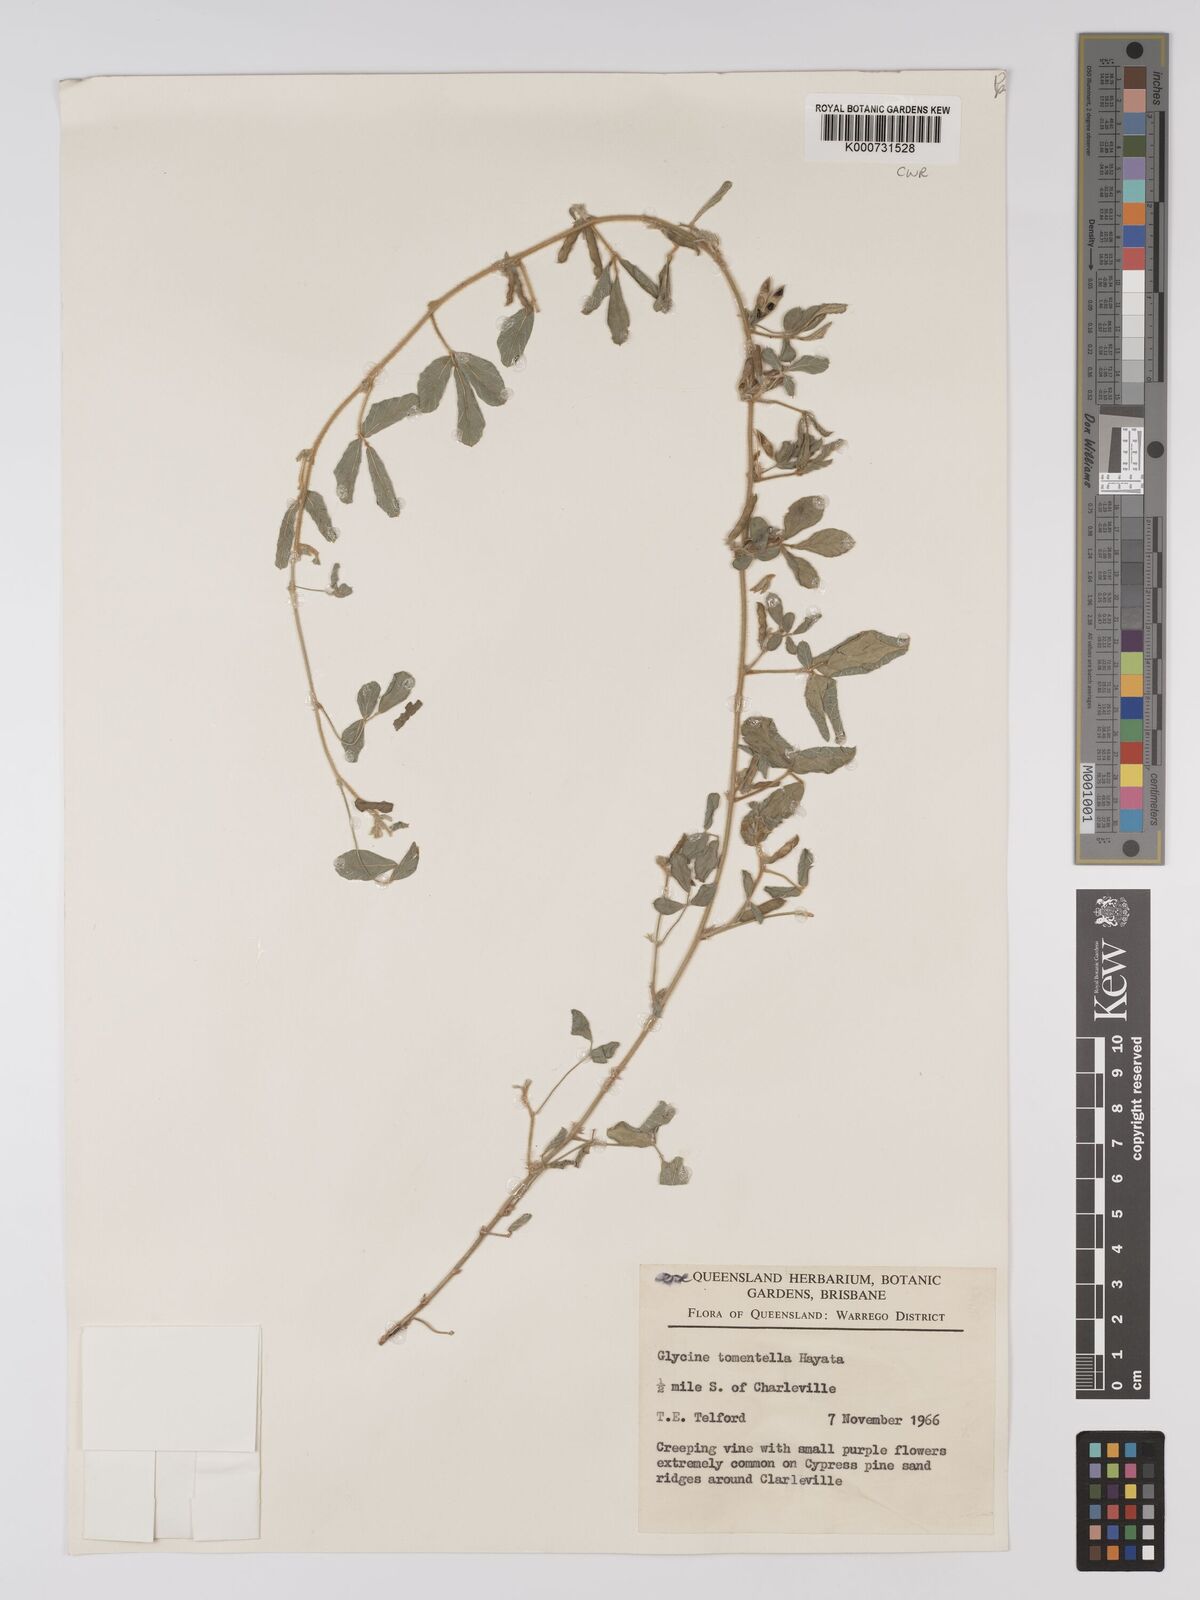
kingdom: Plantae
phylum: Tracheophyta
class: Magnoliopsida
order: Fabales
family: Fabaceae
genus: Glycine
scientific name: Glycine tomentella
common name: Hairy glycine
